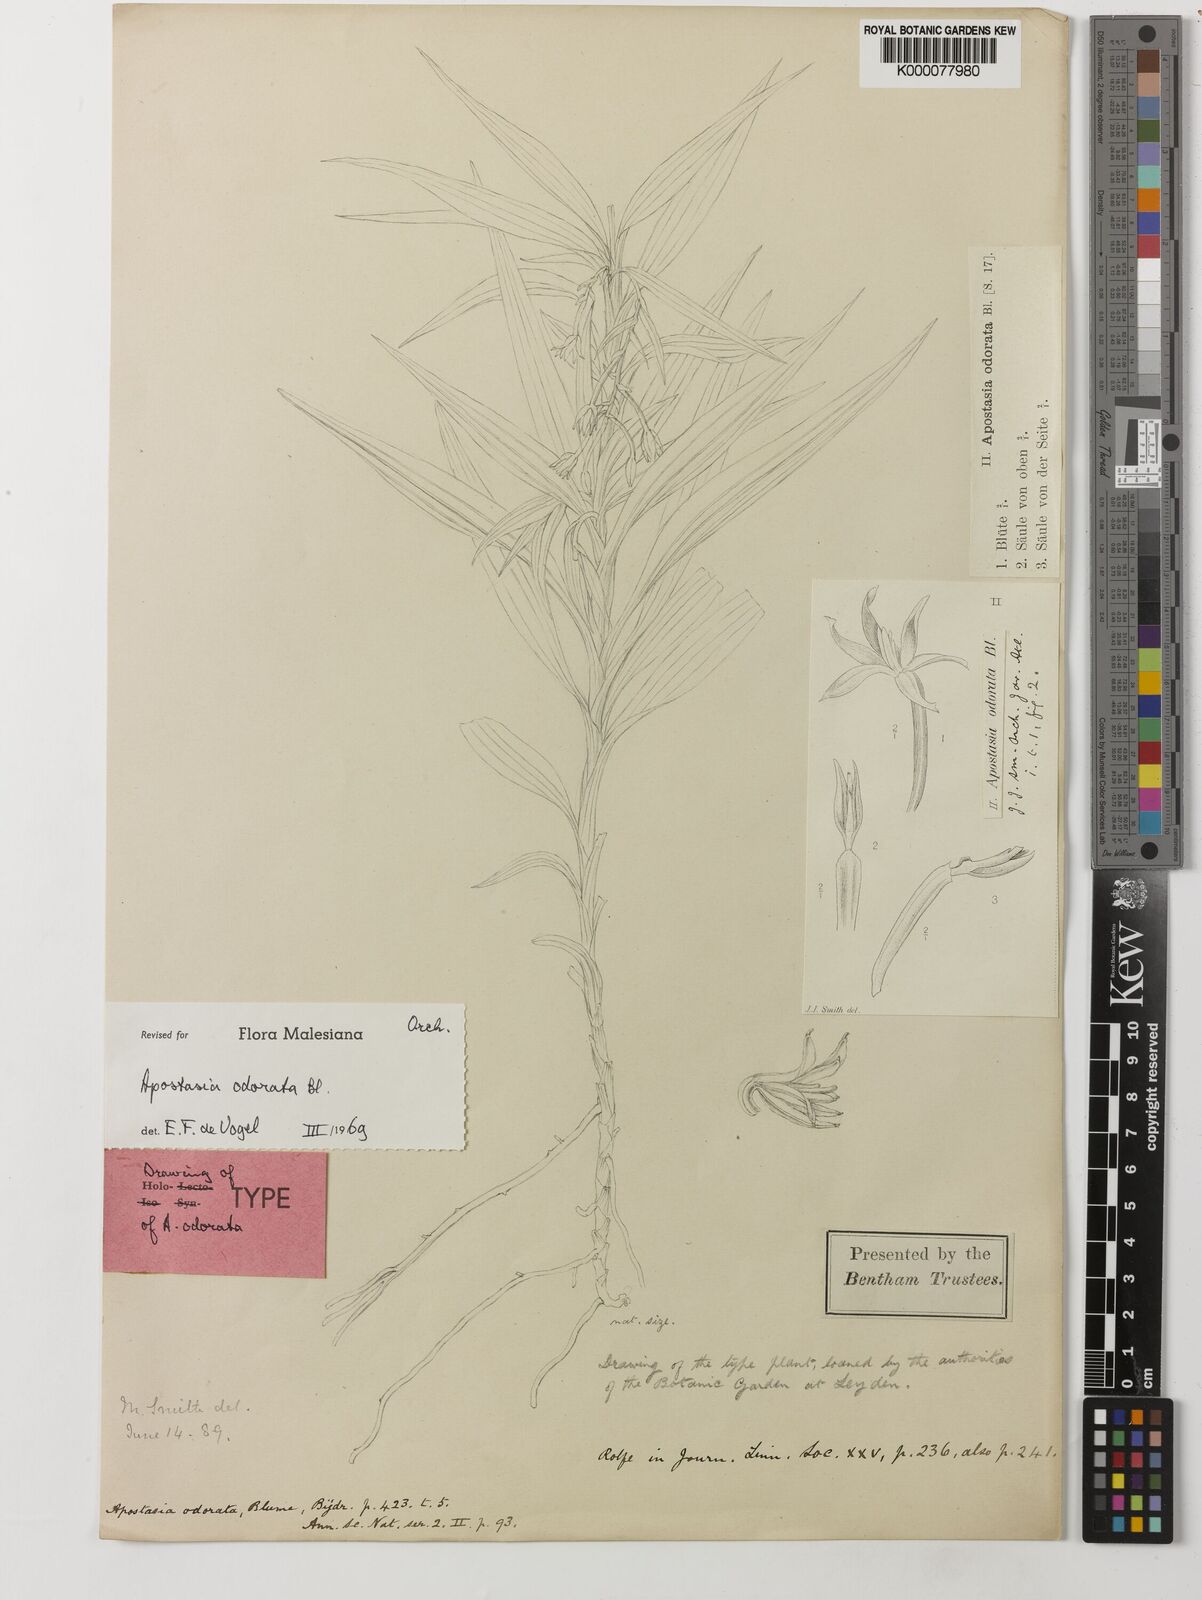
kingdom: Plantae
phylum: Tracheophyta
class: Liliopsida
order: Asparagales
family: Orchidaceae
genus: Apostasia
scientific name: Apostasia odorata
